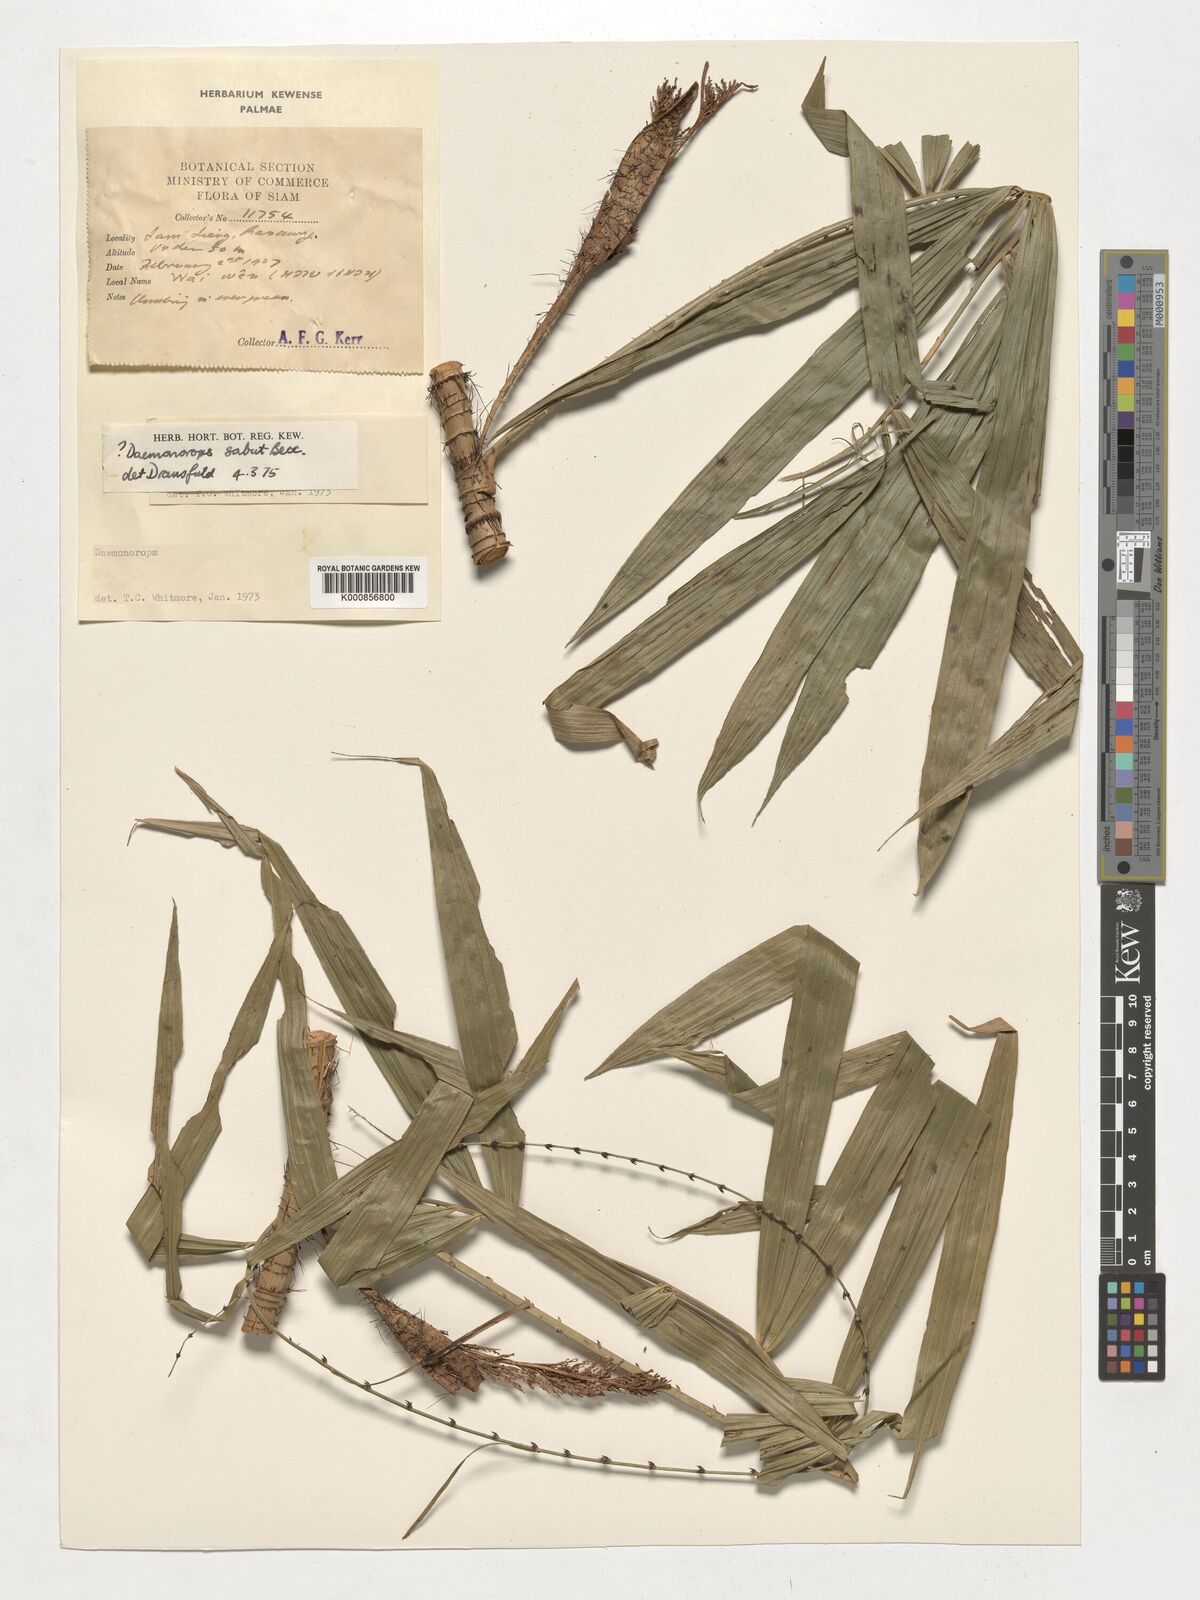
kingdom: Plantae
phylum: Tracheophyta
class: Liliopsida
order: Arecales
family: Arecaceae
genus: Calamus
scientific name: Calamus crinitus
